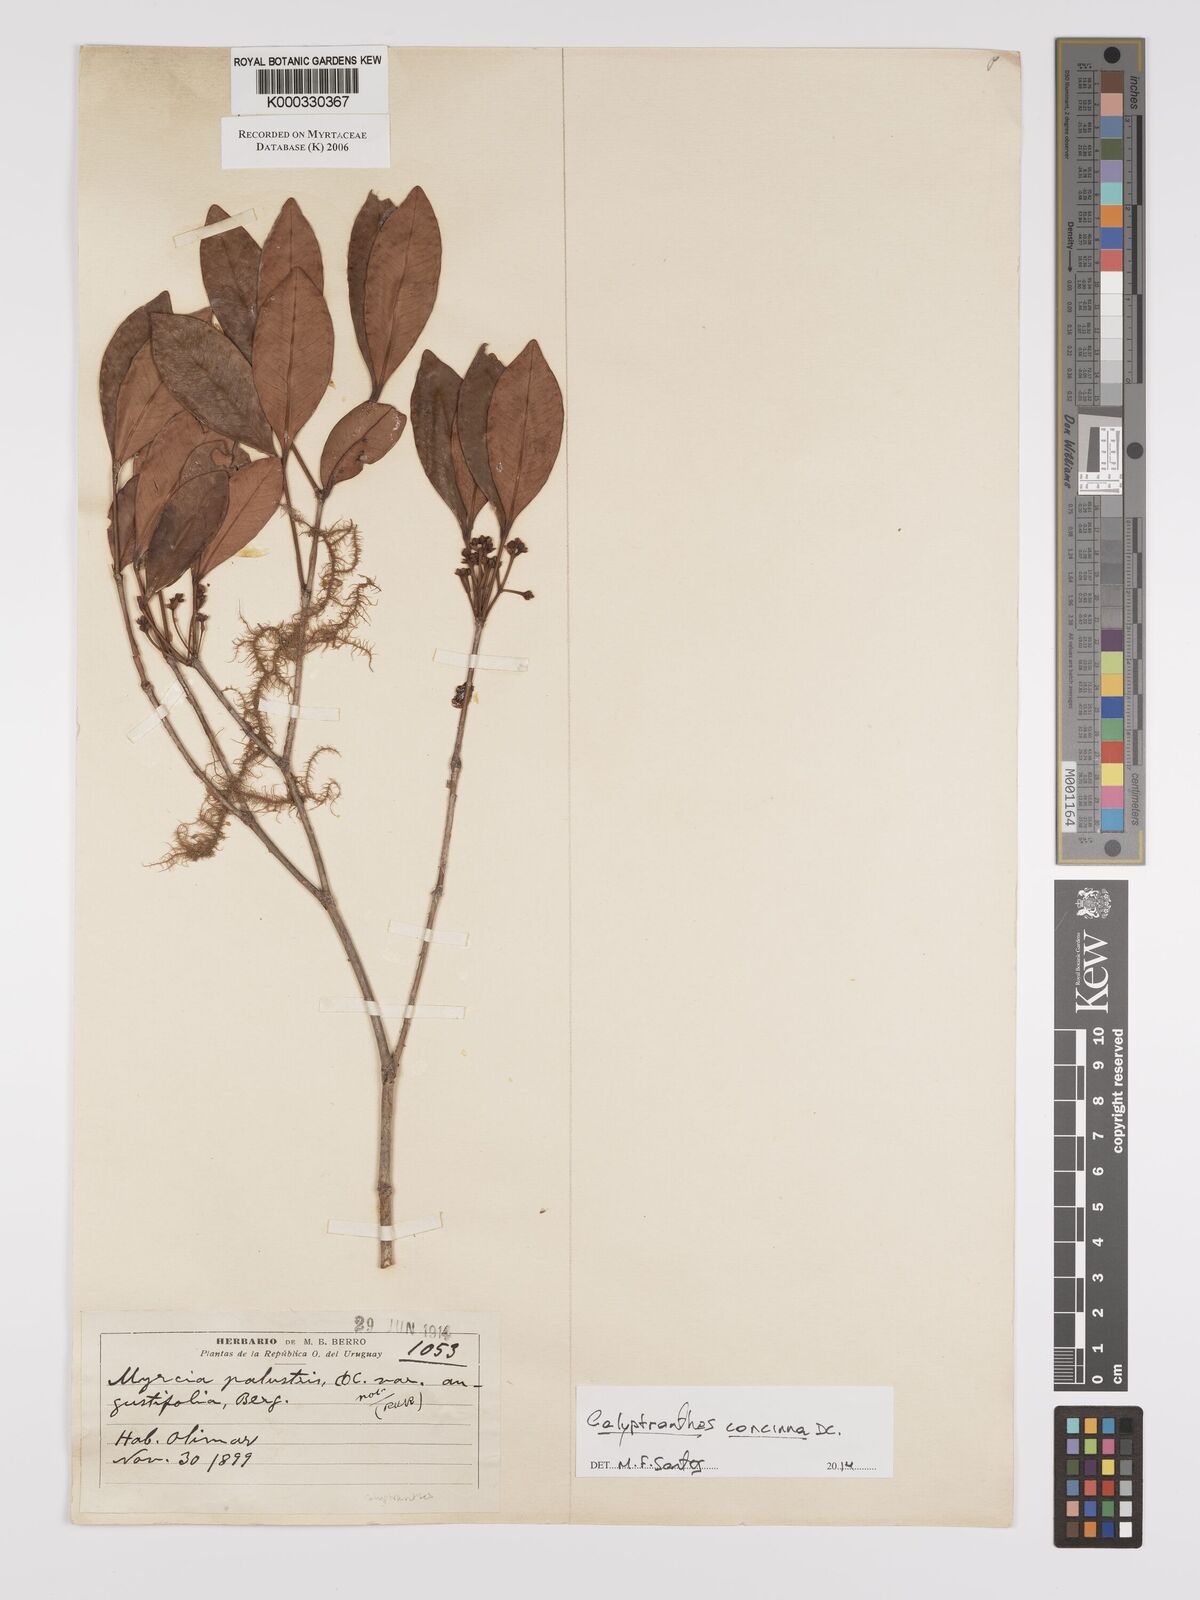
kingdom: Plantae
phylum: Tracheophyta
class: Magnoliopsida
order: Myrtales
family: Myrtaceae
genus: Myrcia
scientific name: Myrcia
